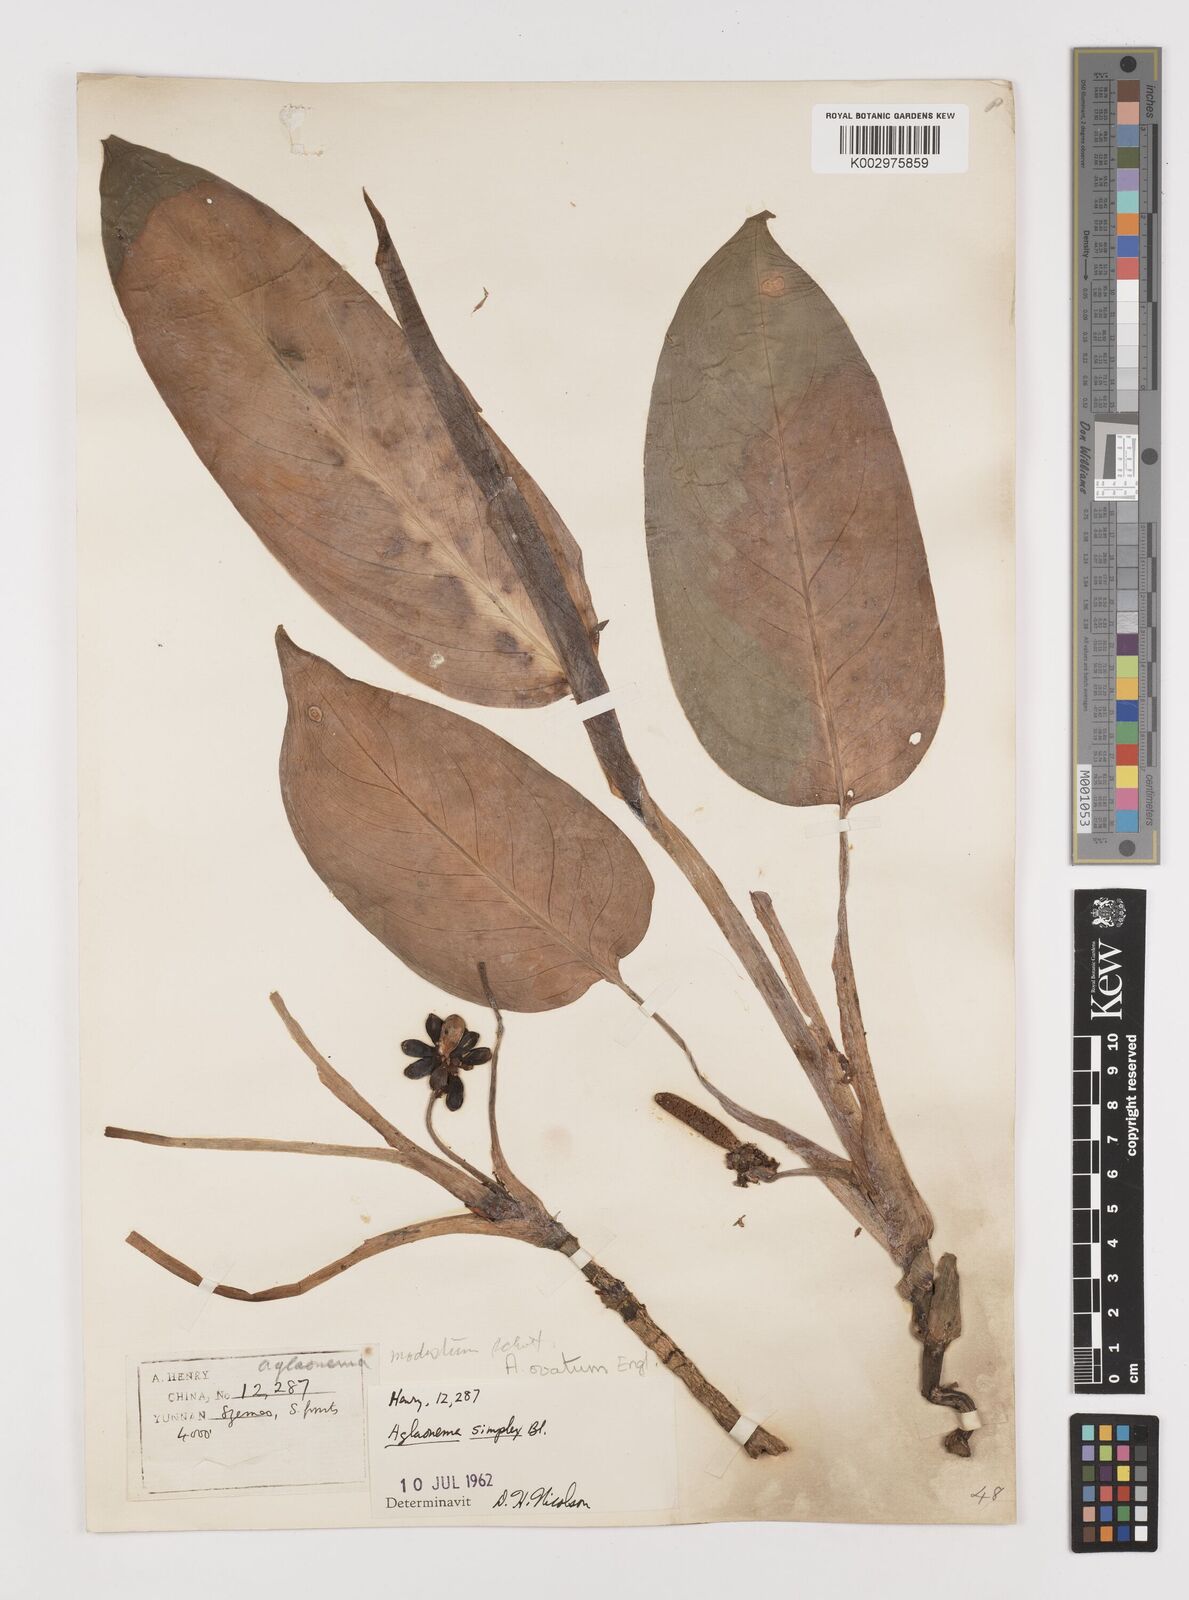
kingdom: Plantae
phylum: Tracheophyta
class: Liliopsida
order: Alismatales
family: Araceae
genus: Aglaonema
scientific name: Aglaonema ovatum
